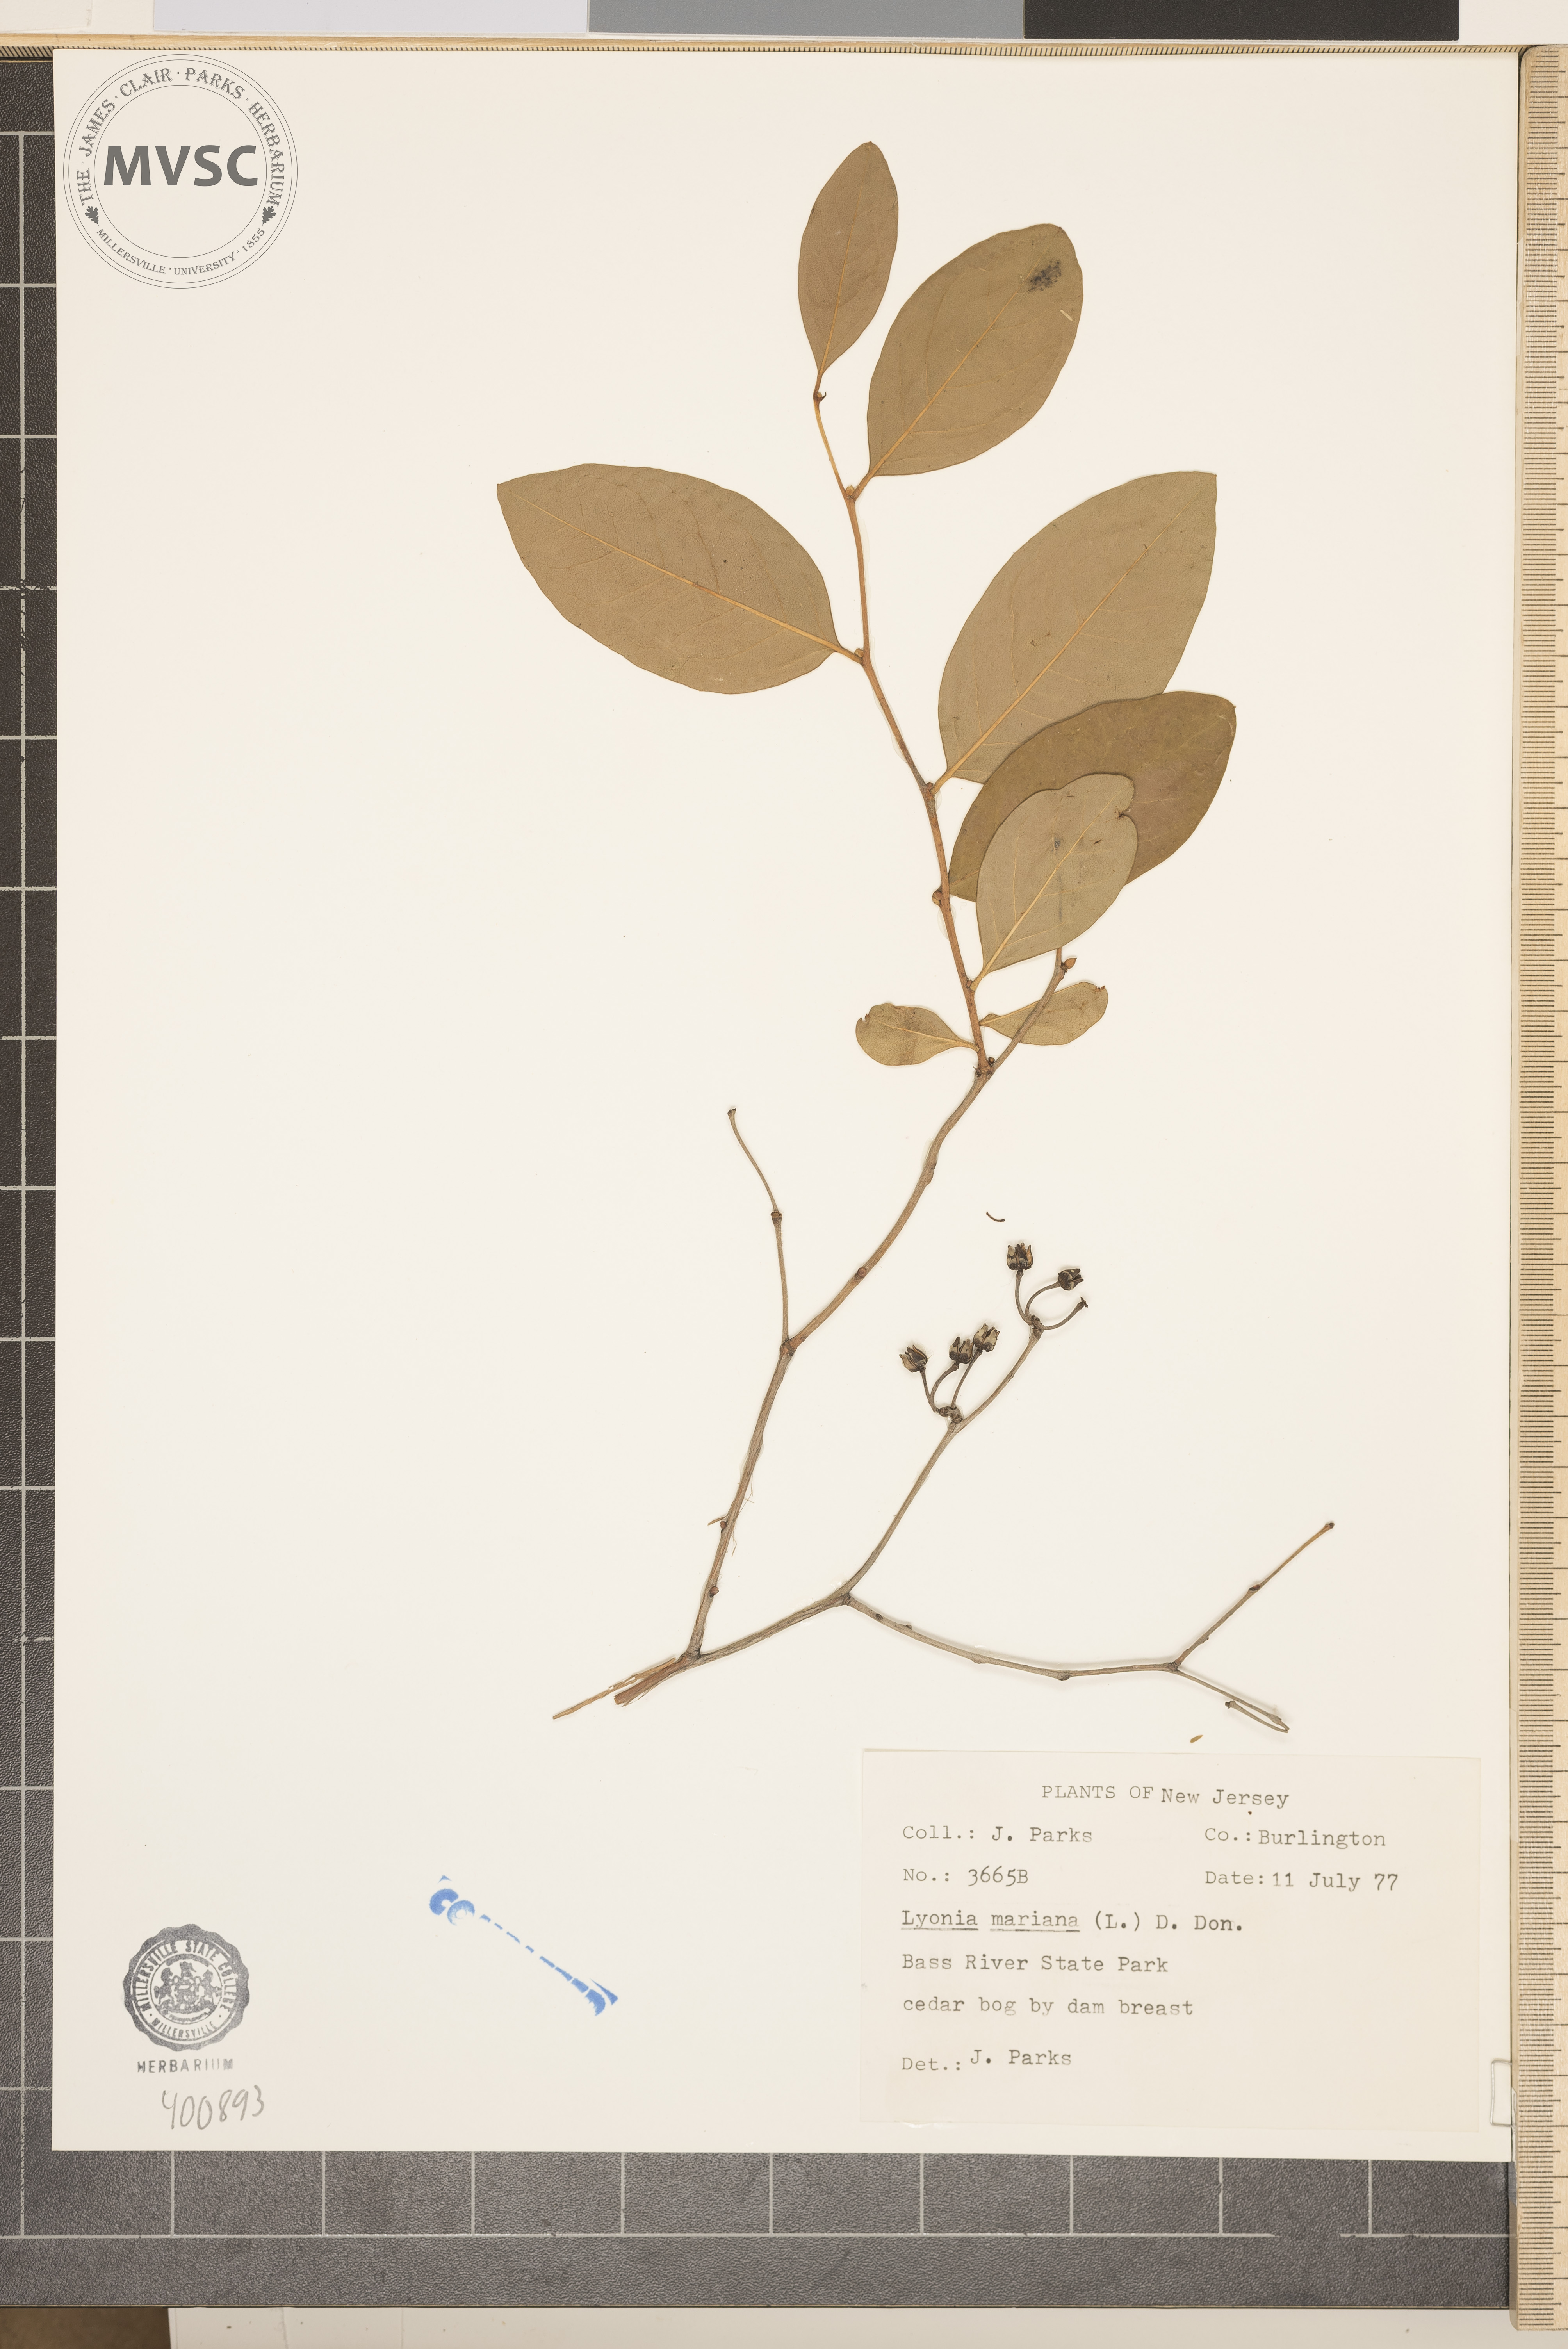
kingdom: Plantae
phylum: Tracheophyta
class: Magnoliopsida
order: Ericales
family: Ericaceae
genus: Lyonia
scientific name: Lyonia mariana
